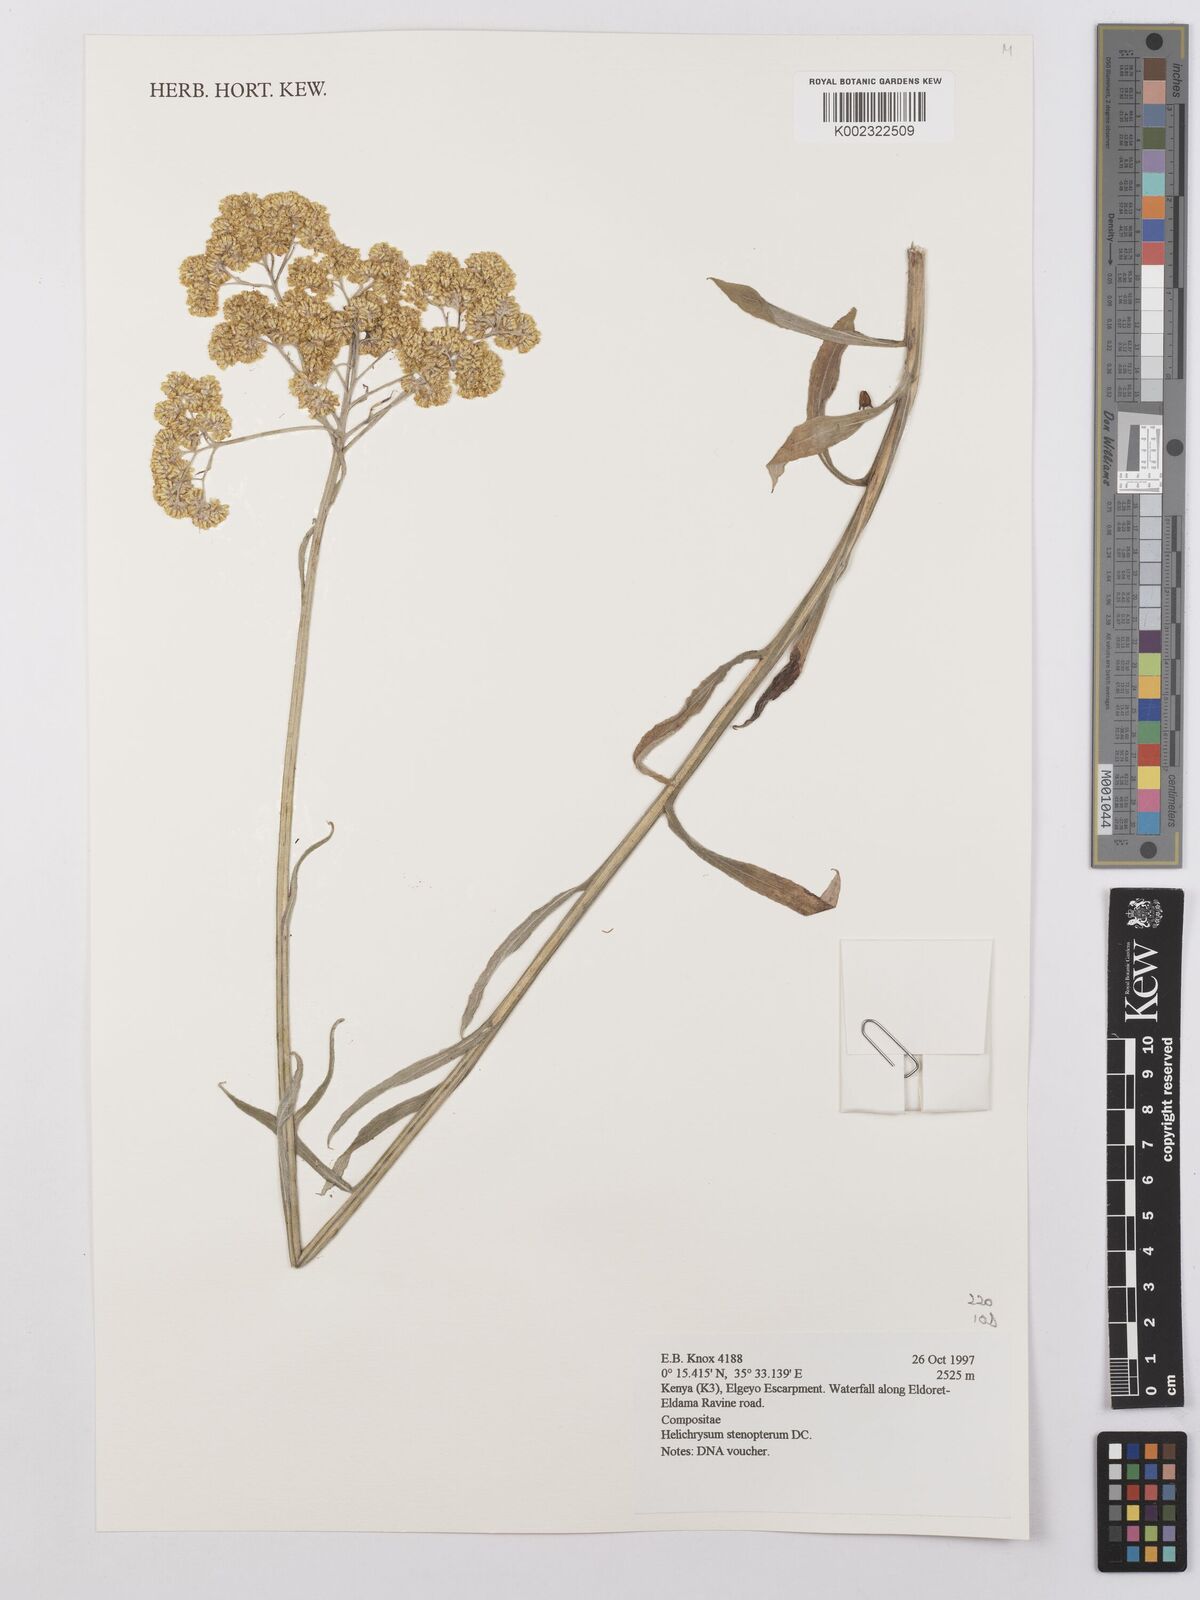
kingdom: Plantae
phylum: Tracheophyta
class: Magnoliopsida
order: Asterales
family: Asteraceae
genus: Helichrysum
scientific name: Helichrysum stenopterum
